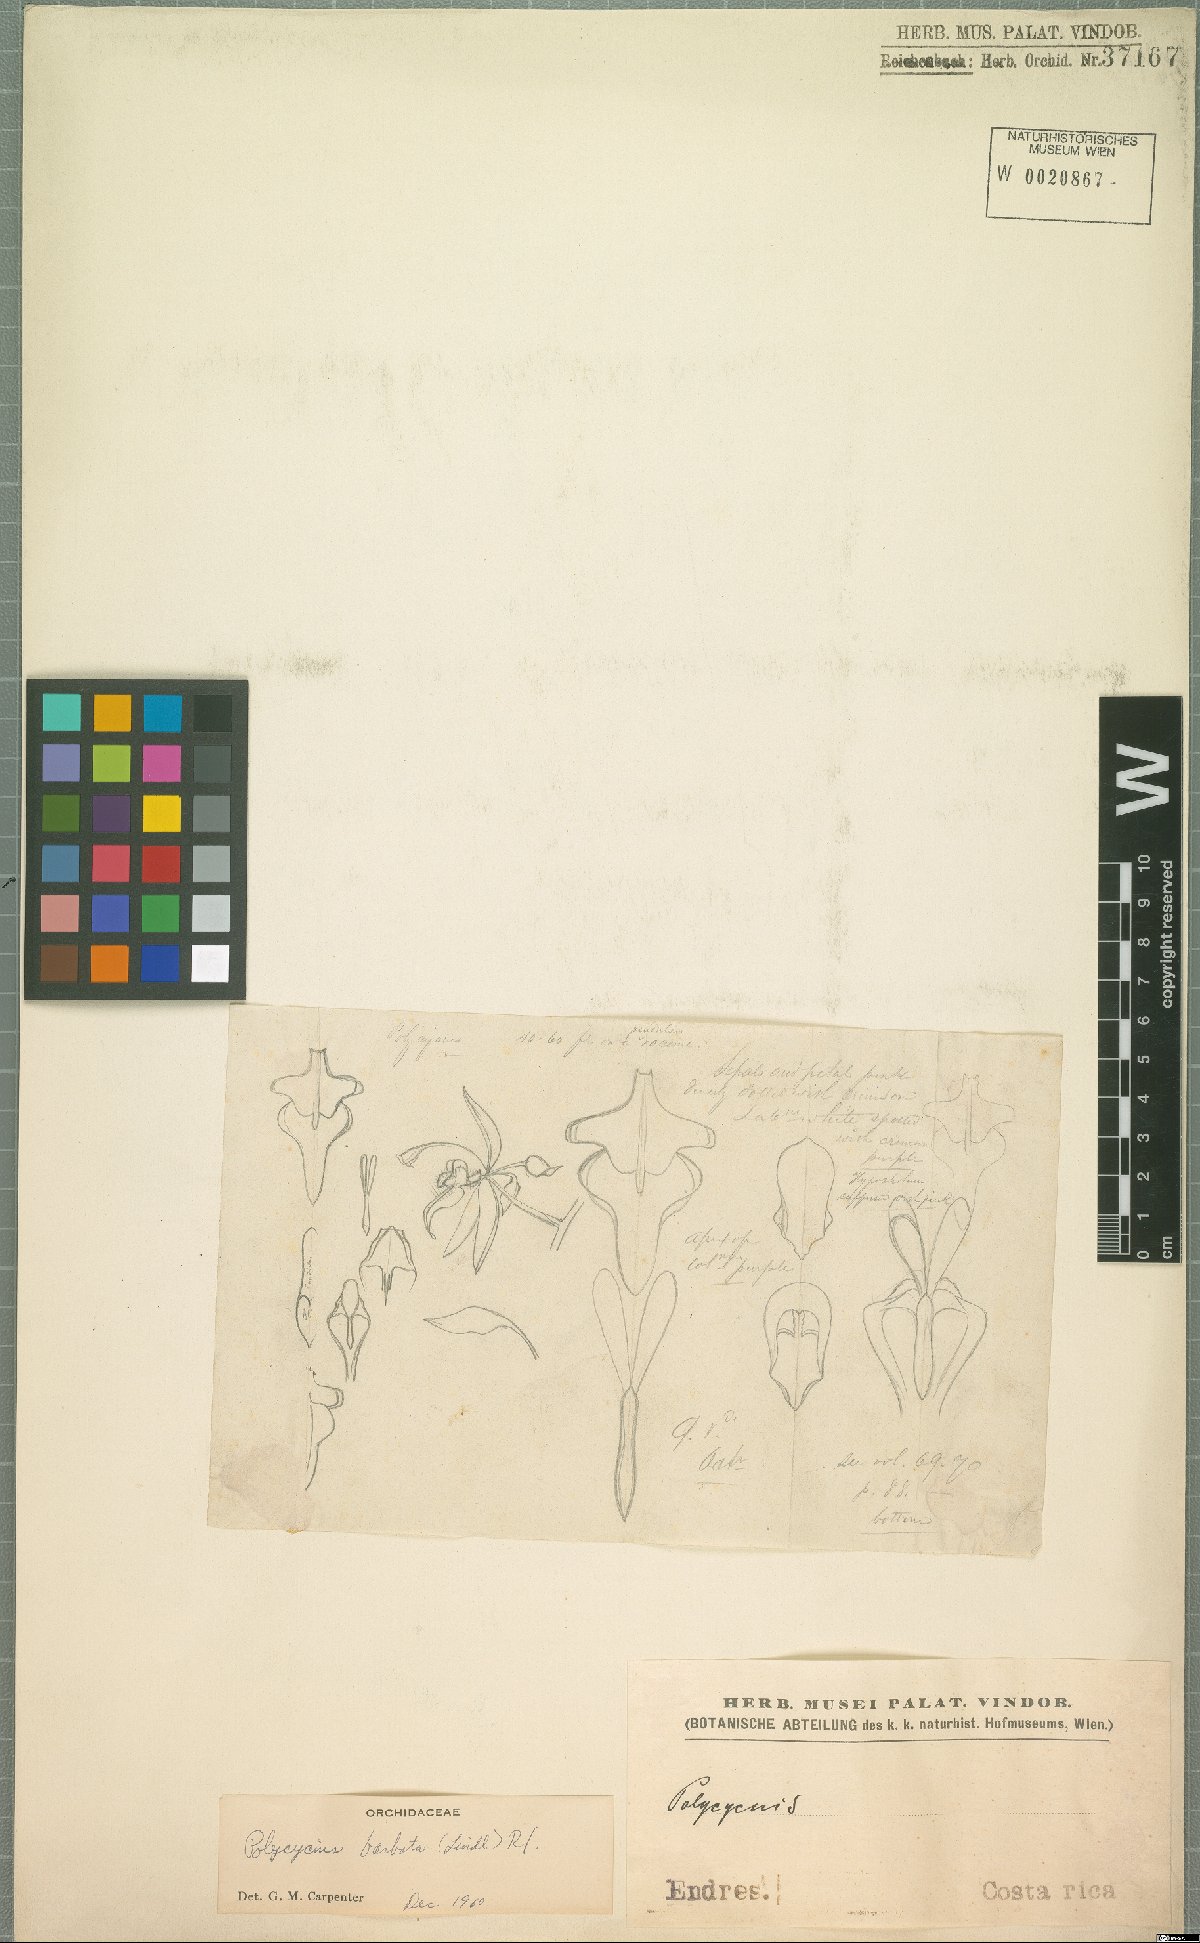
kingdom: Plantae
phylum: Tracheophyta
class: Liliopsida
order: Asparagales
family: Orchidaceae
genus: Polycycnis
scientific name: Polycycnis muscifera
